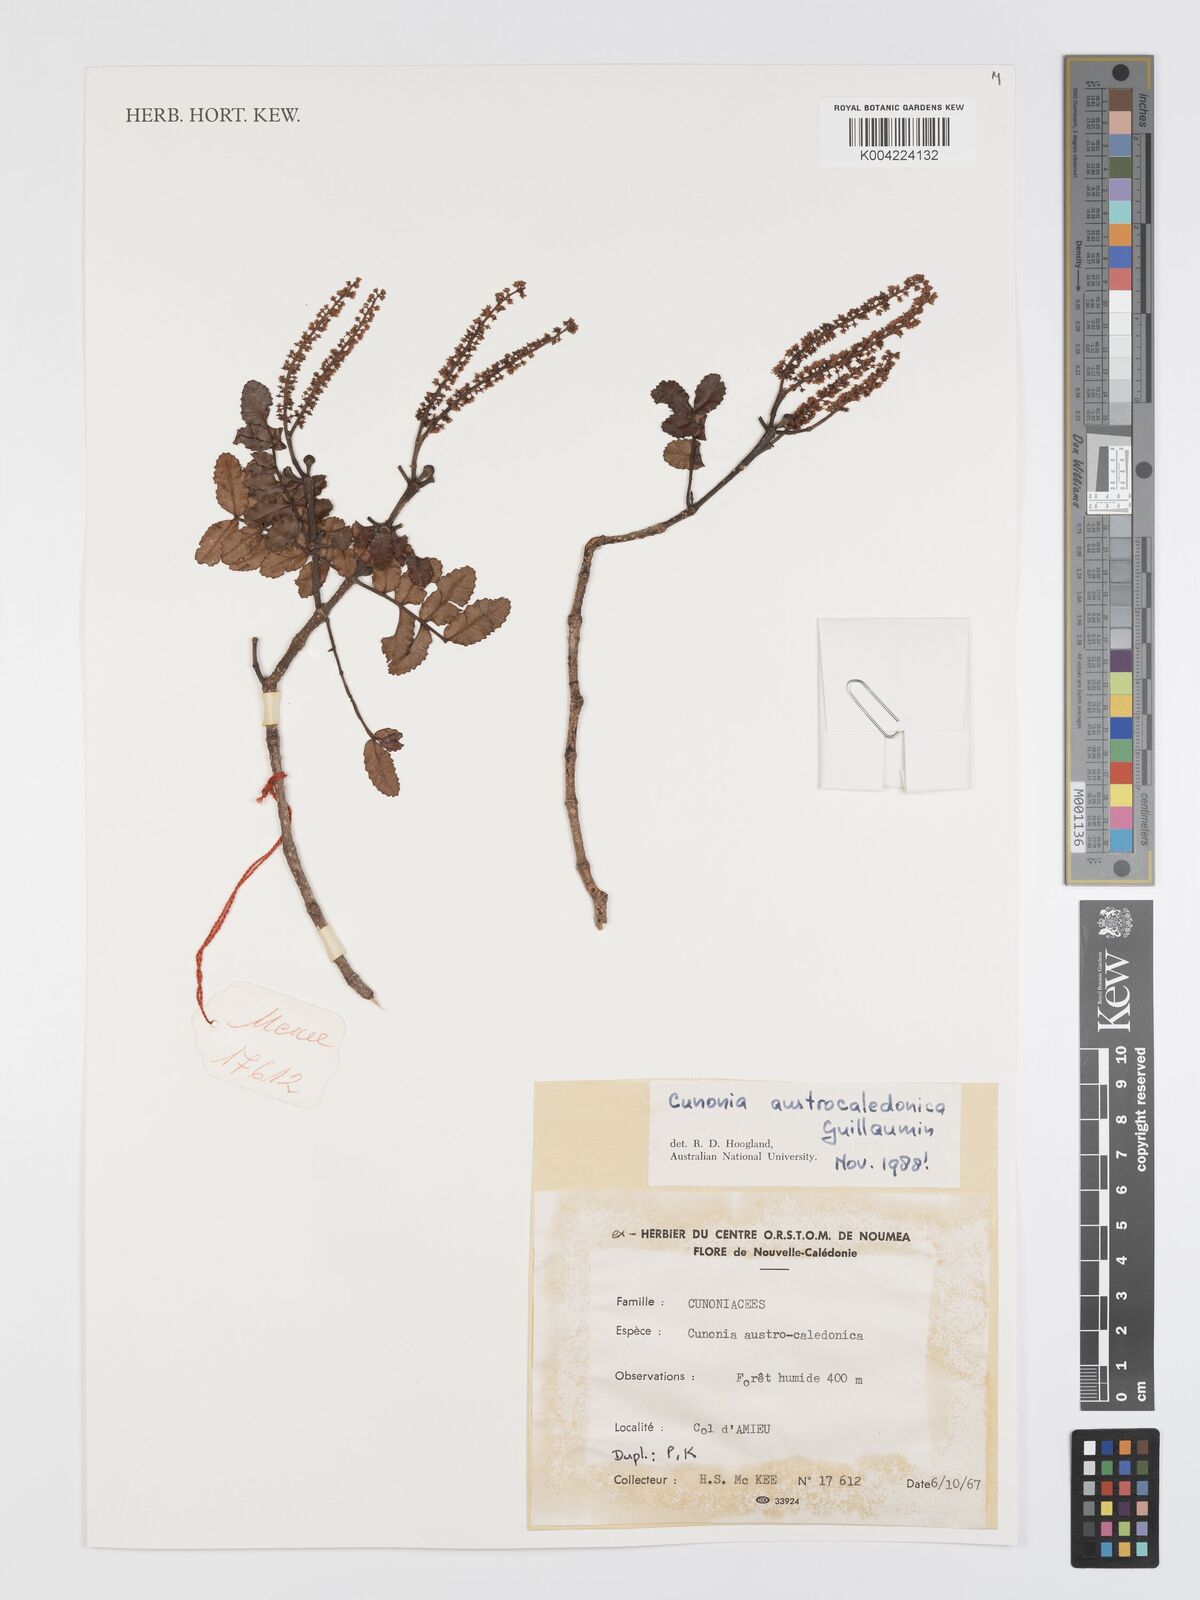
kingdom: Plantae
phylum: Tracheophyta
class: Magnoliopsida
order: Oxalidales
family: Cunoniaceae
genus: Cunonia
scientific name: Cunonia austrocaledonica
